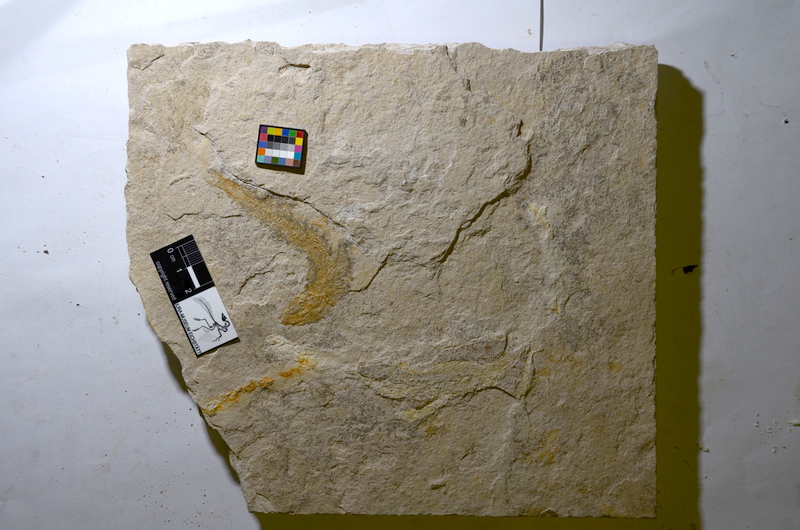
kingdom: Animalia
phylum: Chordata
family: Ascalaboidae
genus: Tharsis
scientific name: Tharsis
